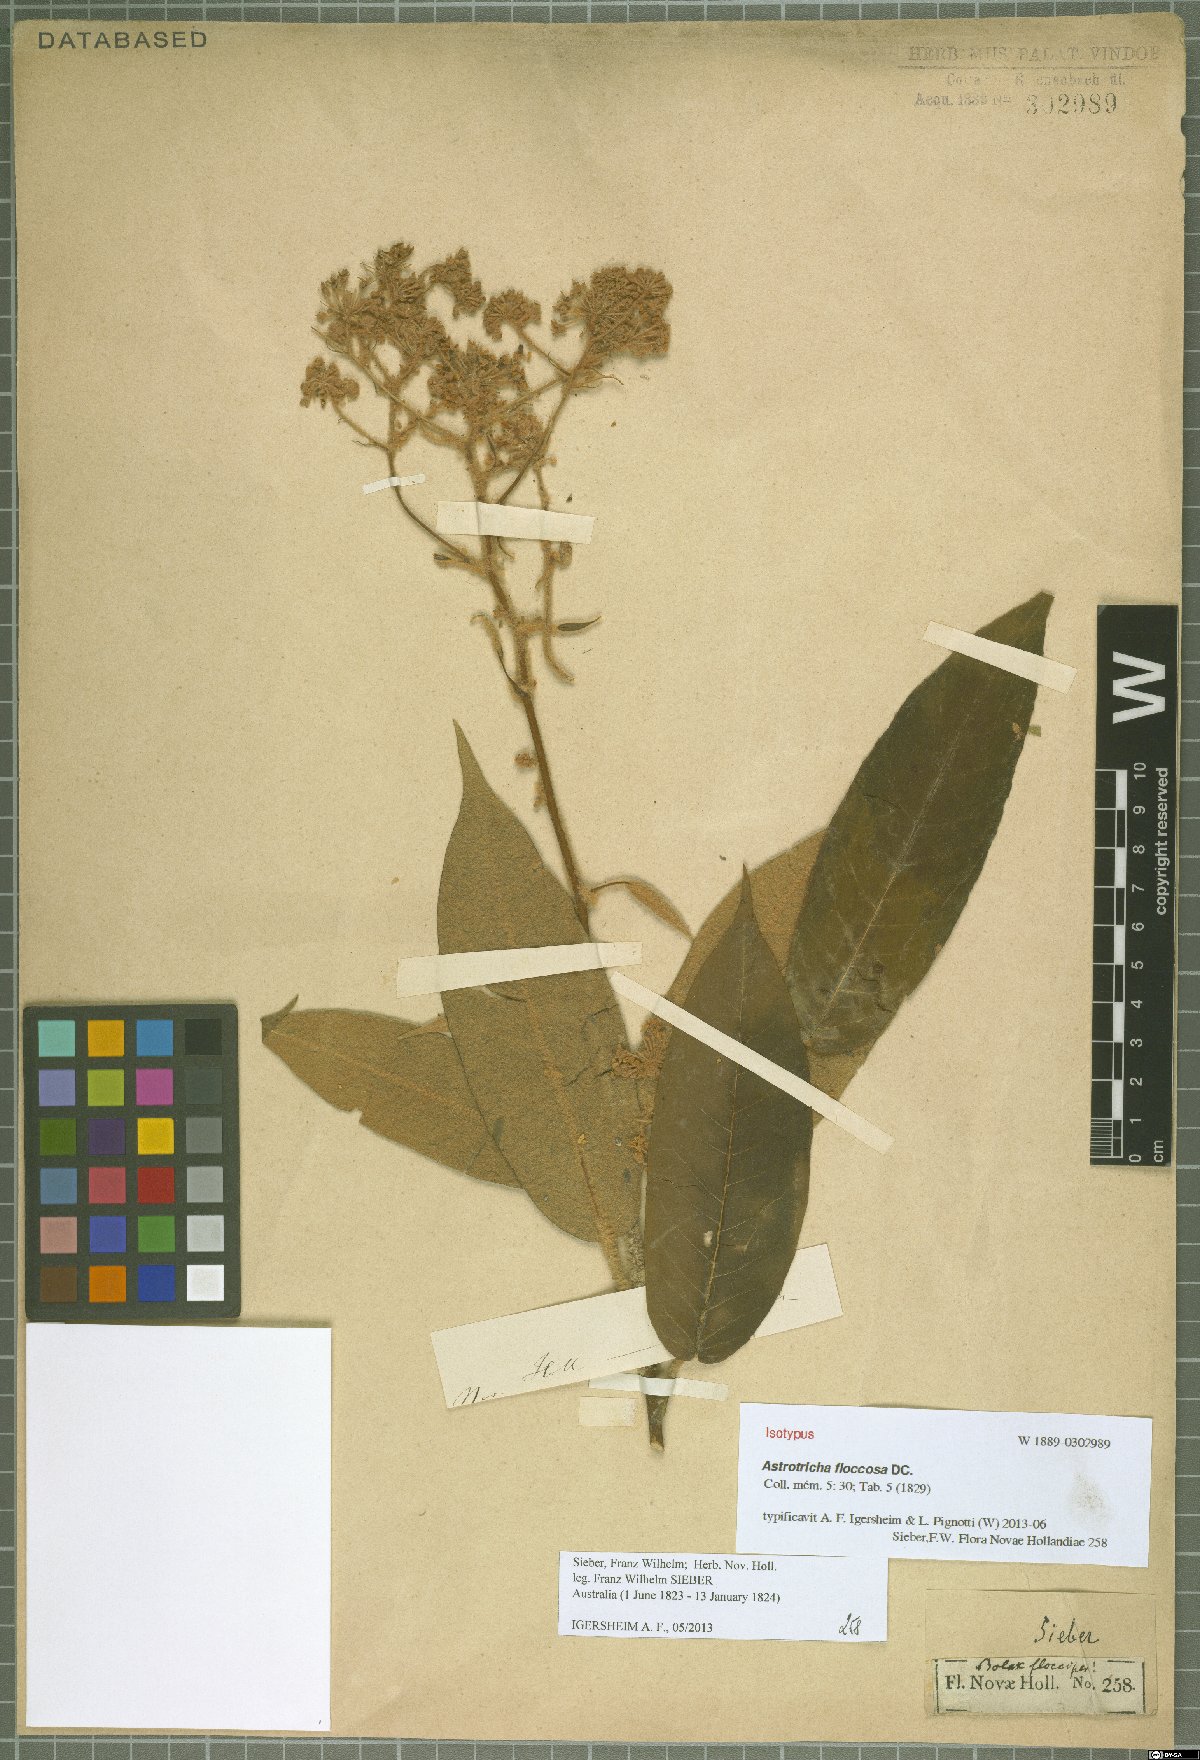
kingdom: Plantae
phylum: Tracheophyta
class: Magnoliopsida
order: Apiales
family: Araliaceae
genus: Astrotricha
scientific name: Astrotricha floccosa
